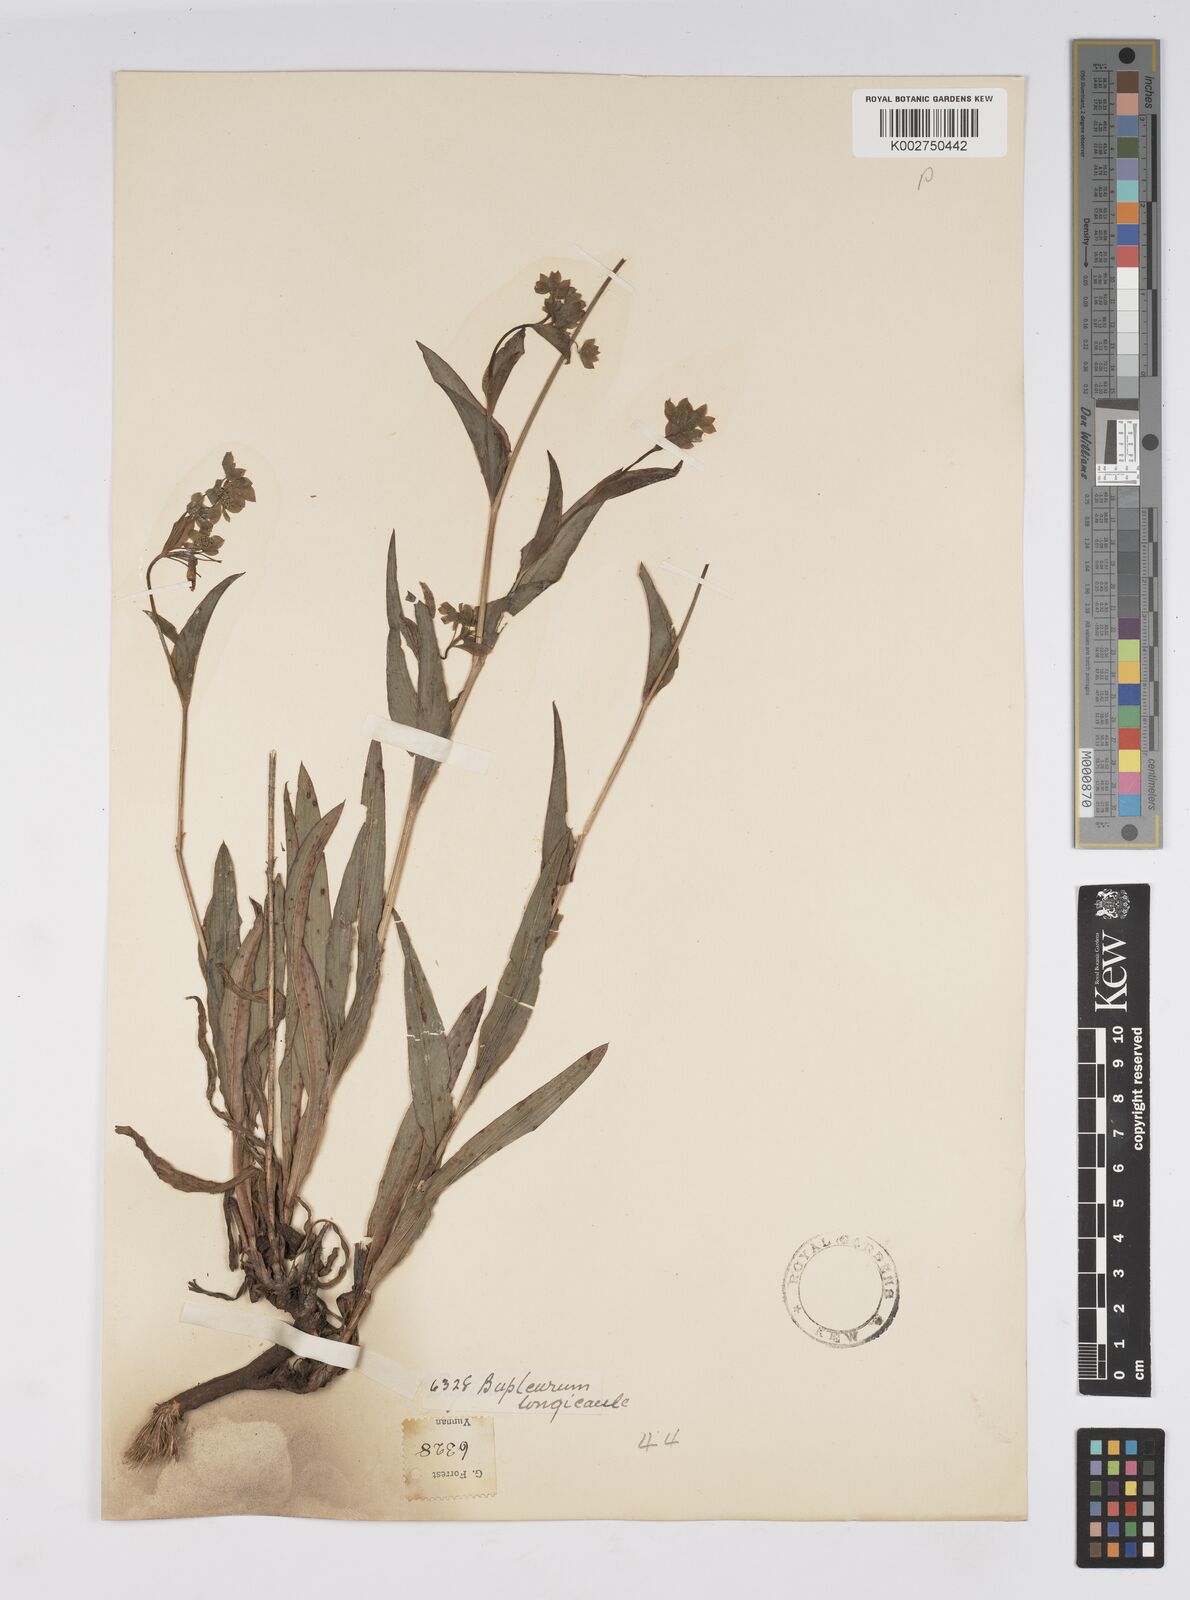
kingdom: Plantae
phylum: Tracheophyta
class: Magnoliopsida
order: Apiales
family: Apiaceae
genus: Bupleurum
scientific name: Bupleurum longicaule
